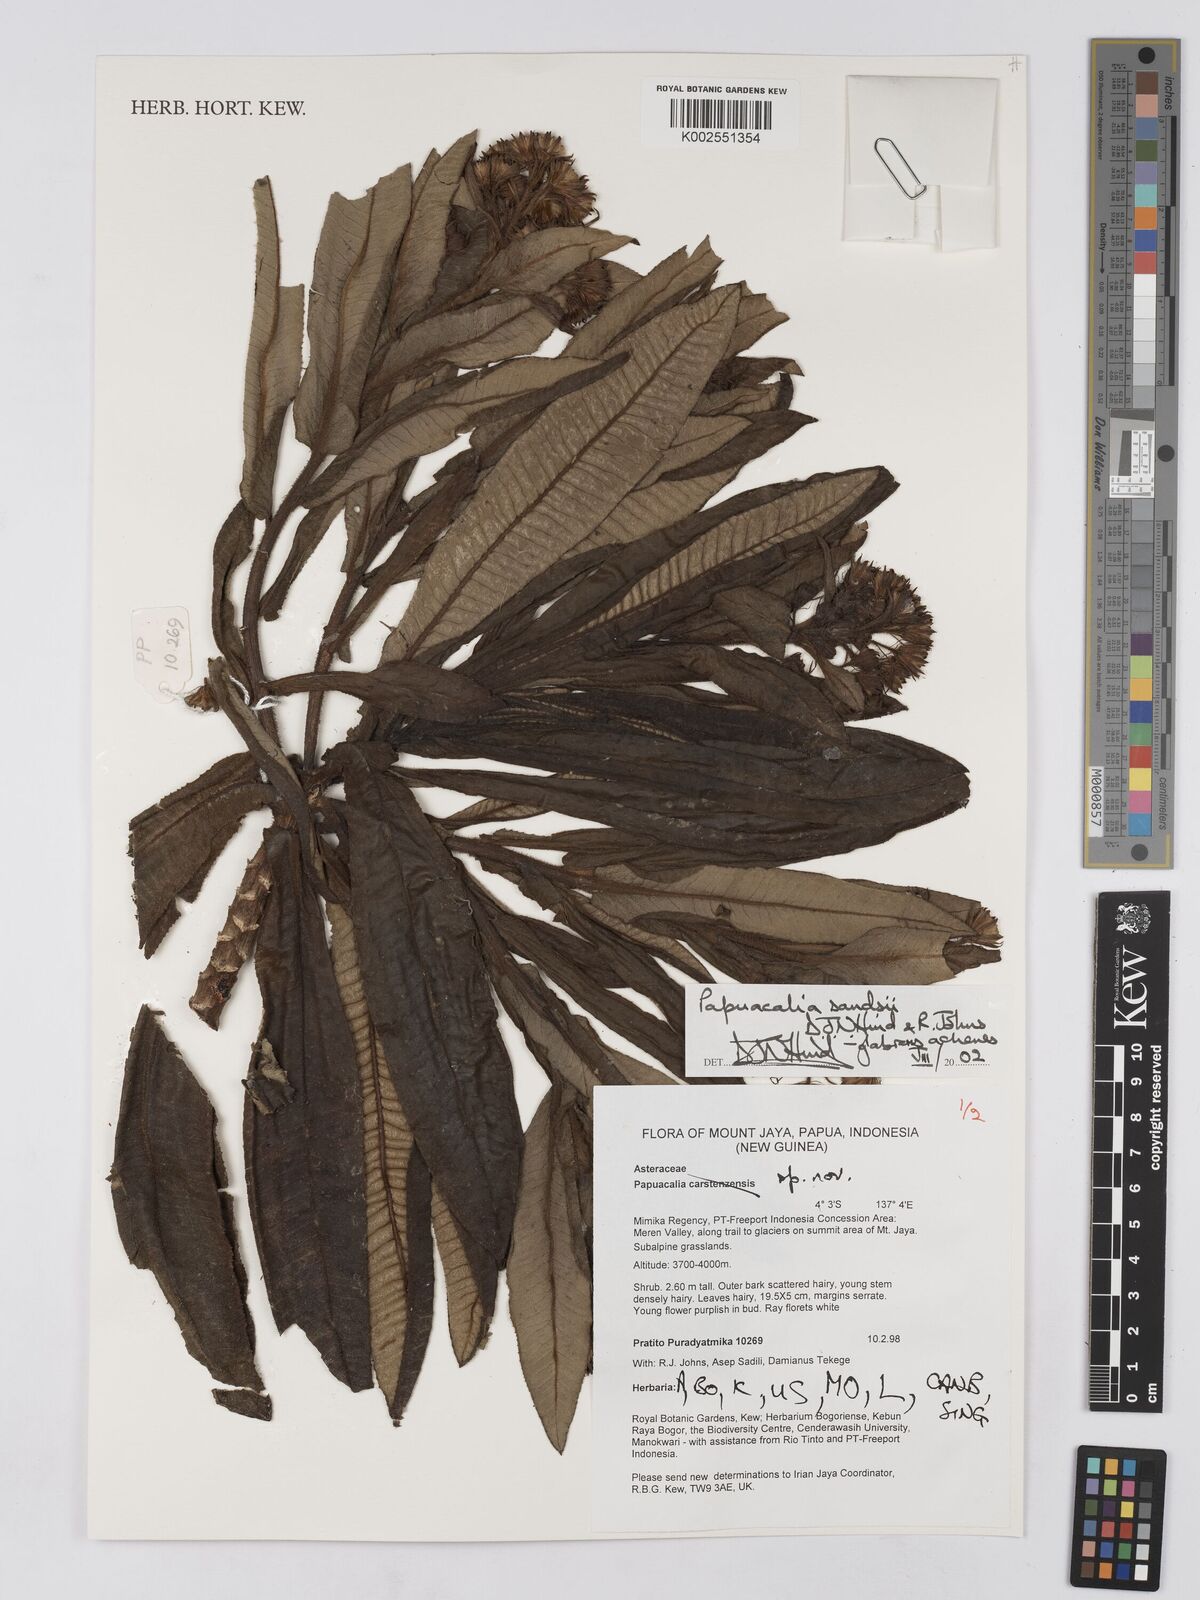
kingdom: Plantae
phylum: Tracheophyta
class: Magnoliopsida
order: Asterales
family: Asteraceae
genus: Papuacalia
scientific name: Papuacalia sandsii
